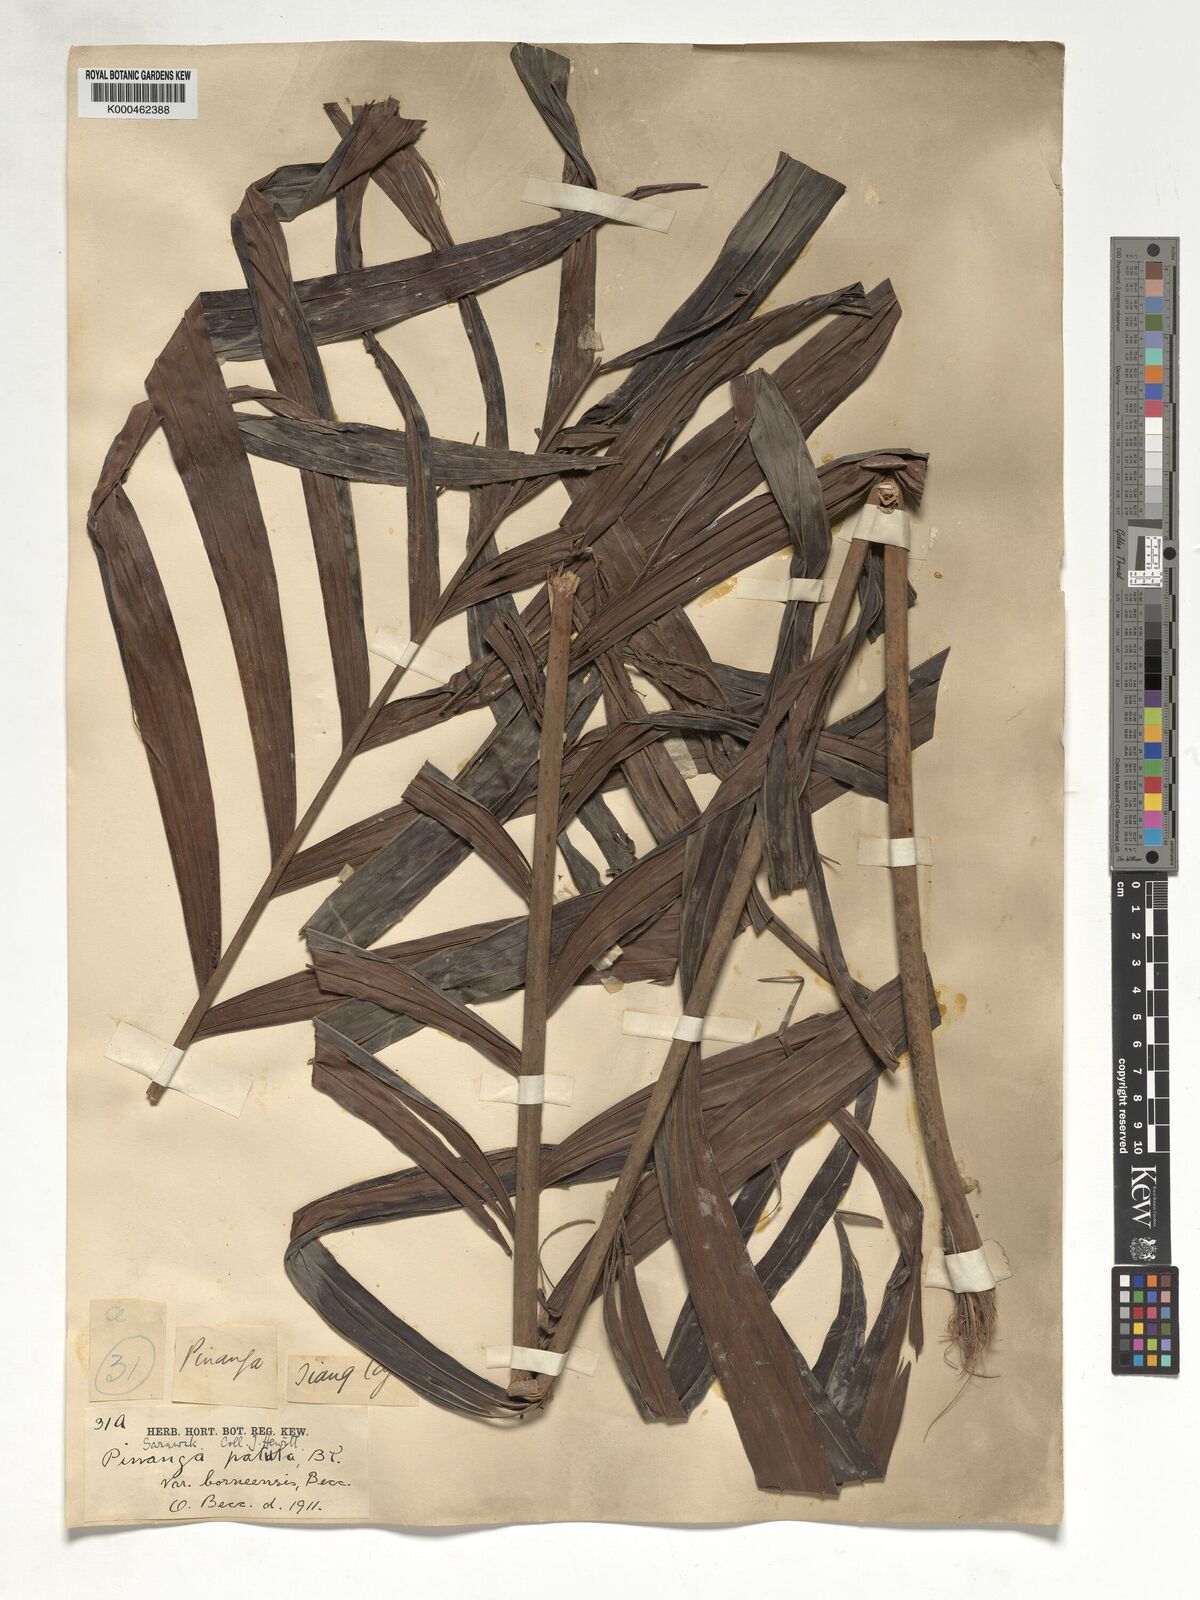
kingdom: Plantae
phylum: Tracheophyta
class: Liliopsida
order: Arecales
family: Arecaceae
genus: Pinanga
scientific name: Pinanga patula
